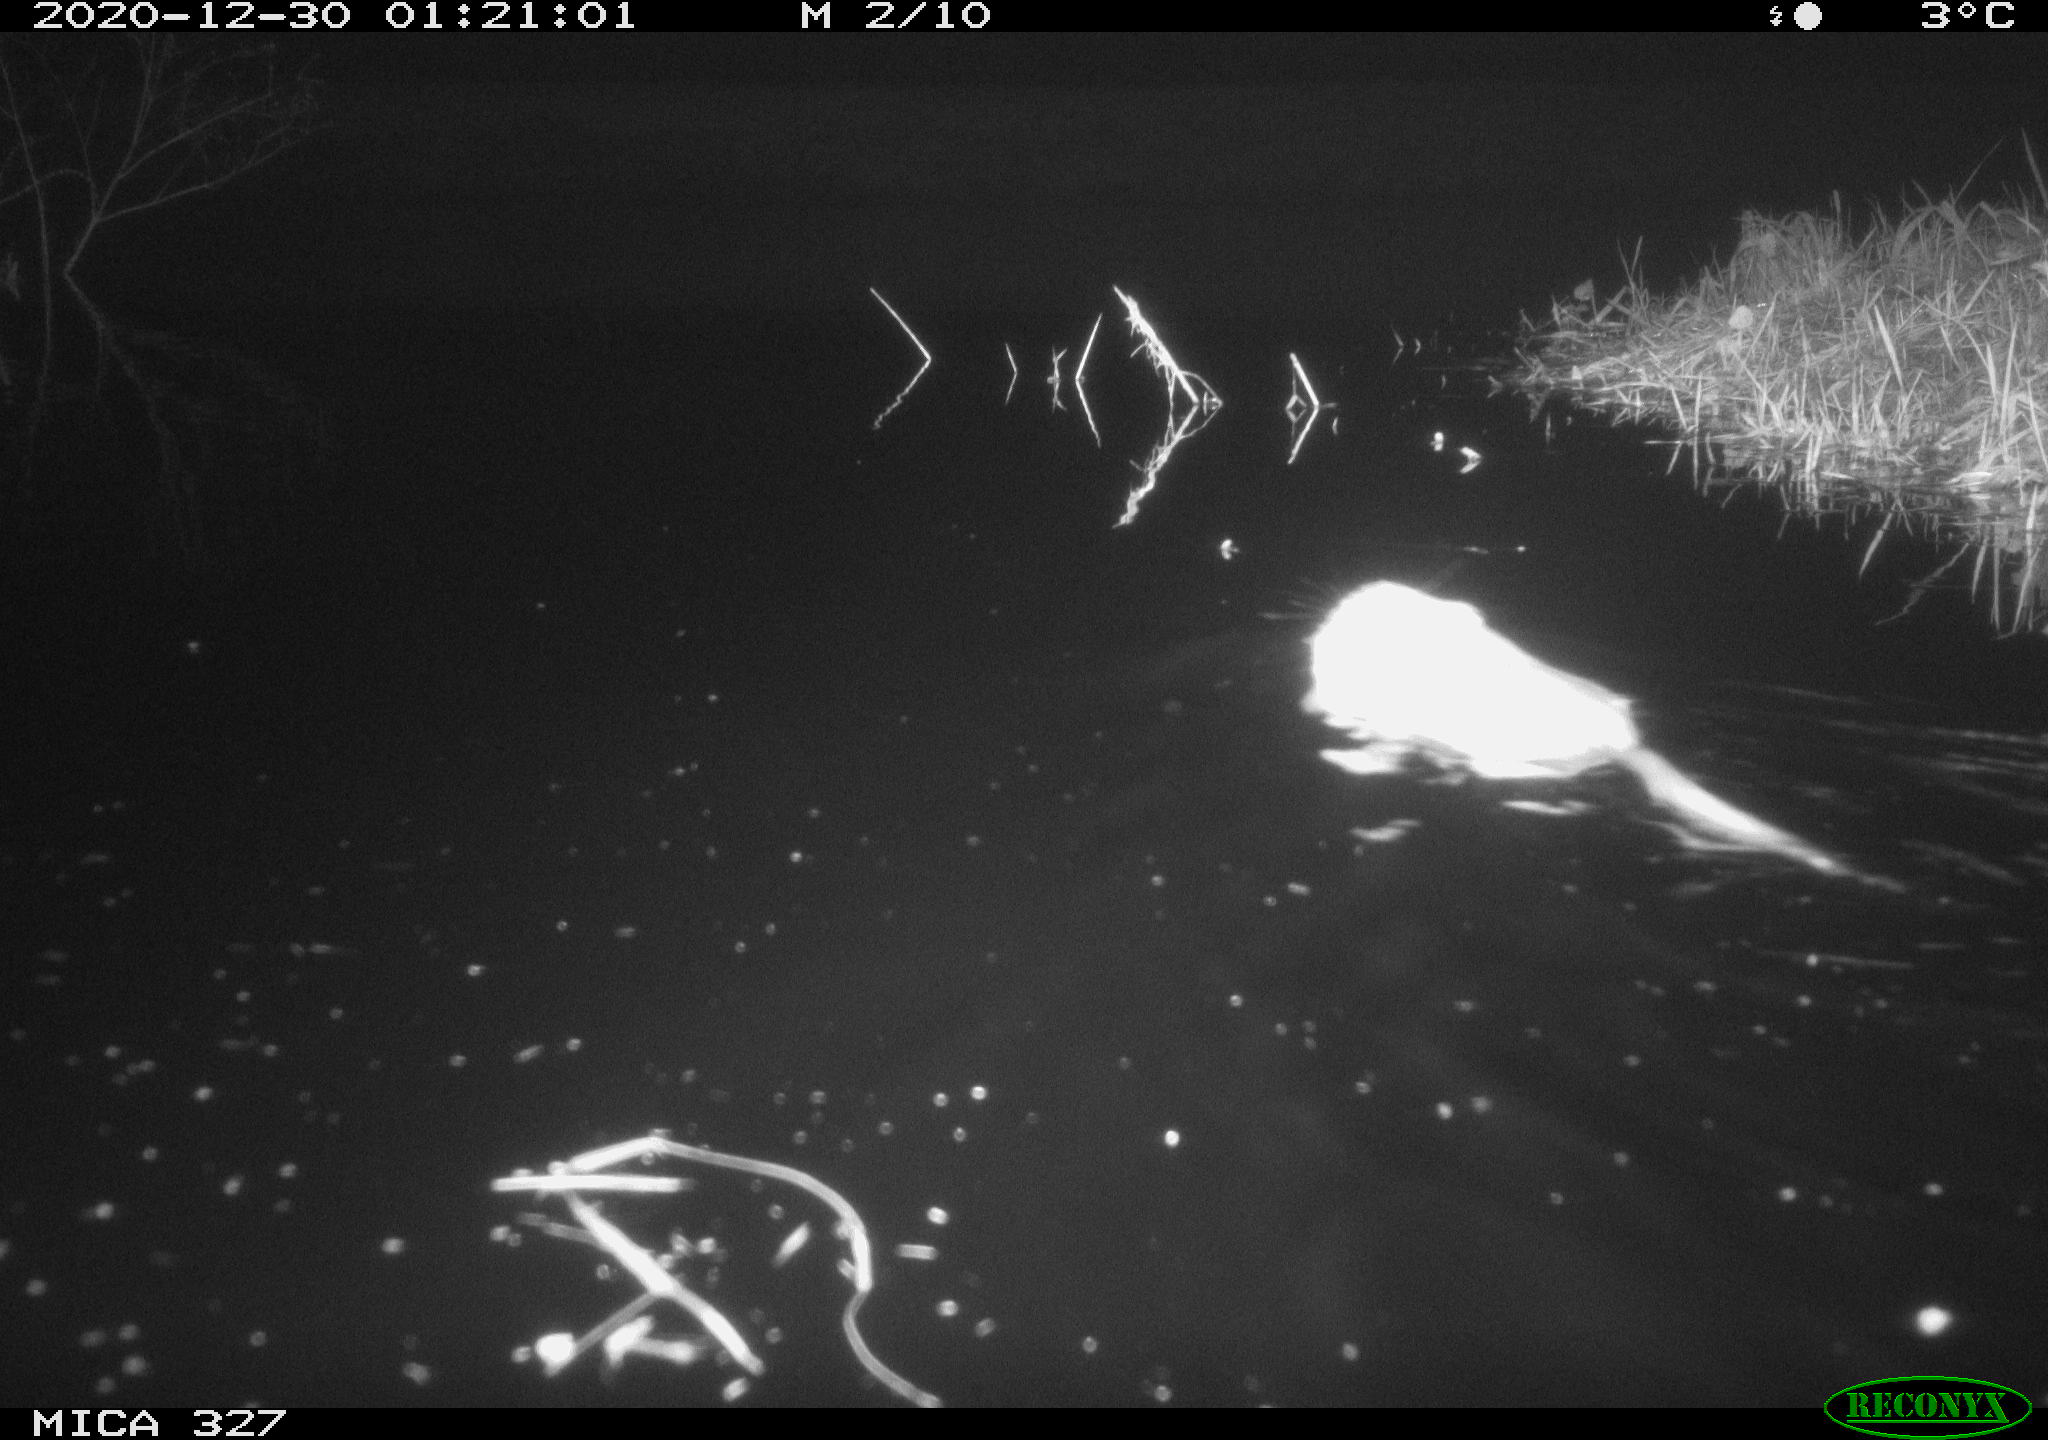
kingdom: Animalia
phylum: Chordata
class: Mammalia
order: Rodentia
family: Cricetidae
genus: Ondatra
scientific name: Ondatra zibethicus
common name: Muskrat
